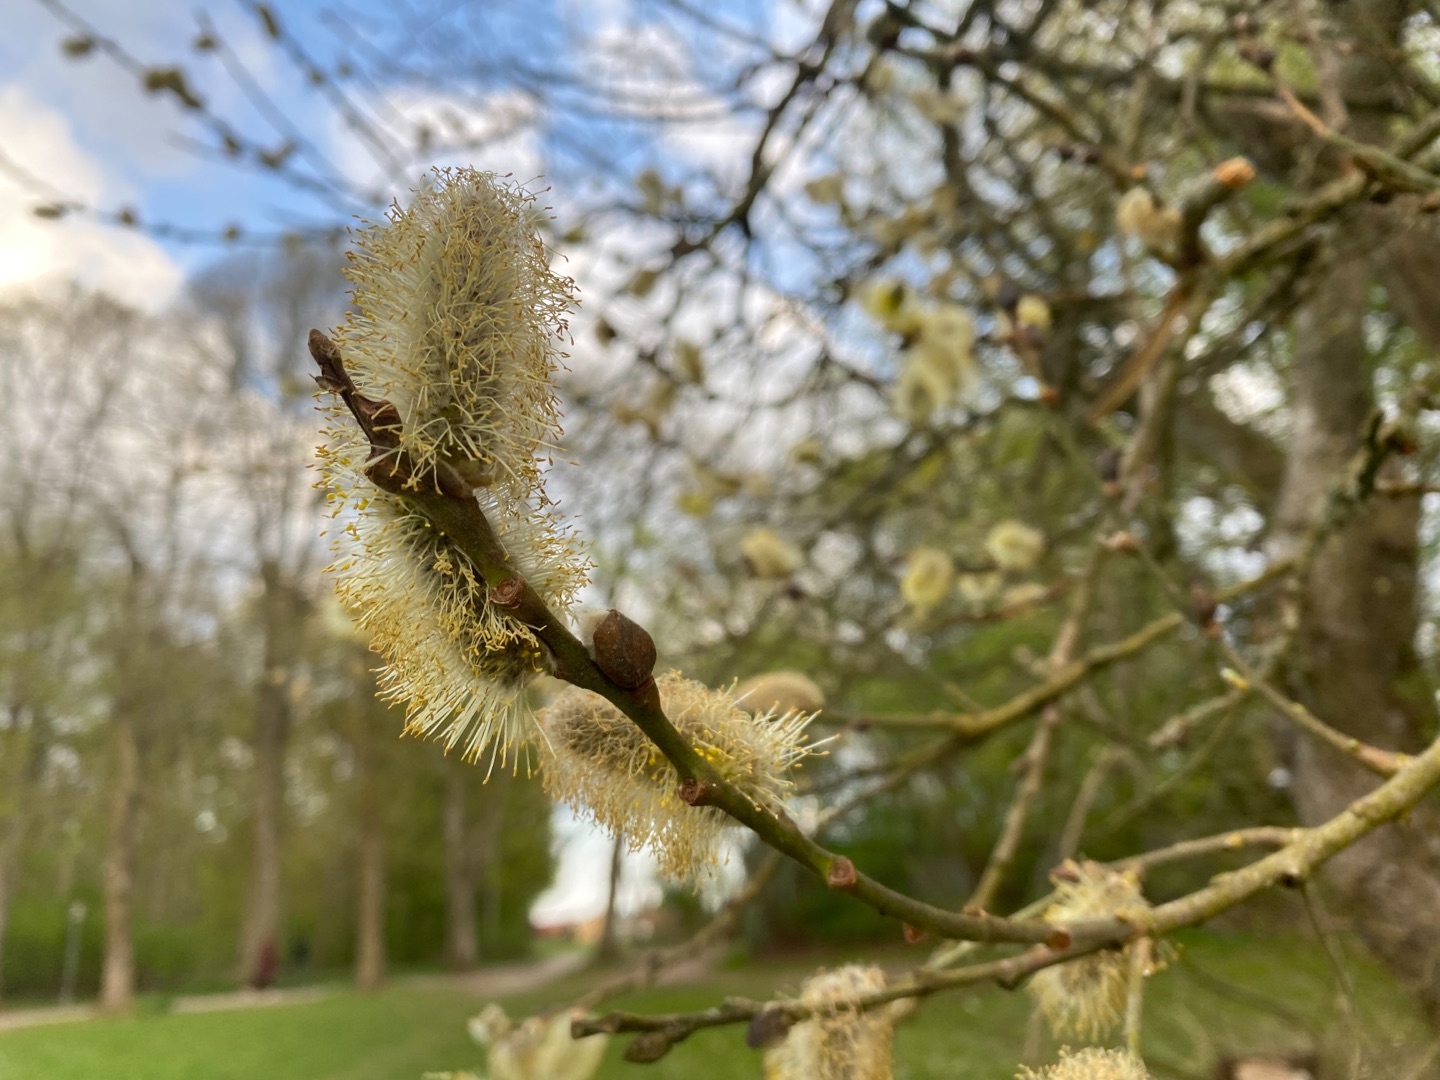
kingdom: Plantae
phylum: Tracheophyta
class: Magnoliopsida
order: Malpighiales
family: Salicaceae
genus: Salix
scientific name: Salix
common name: Pileslægten
